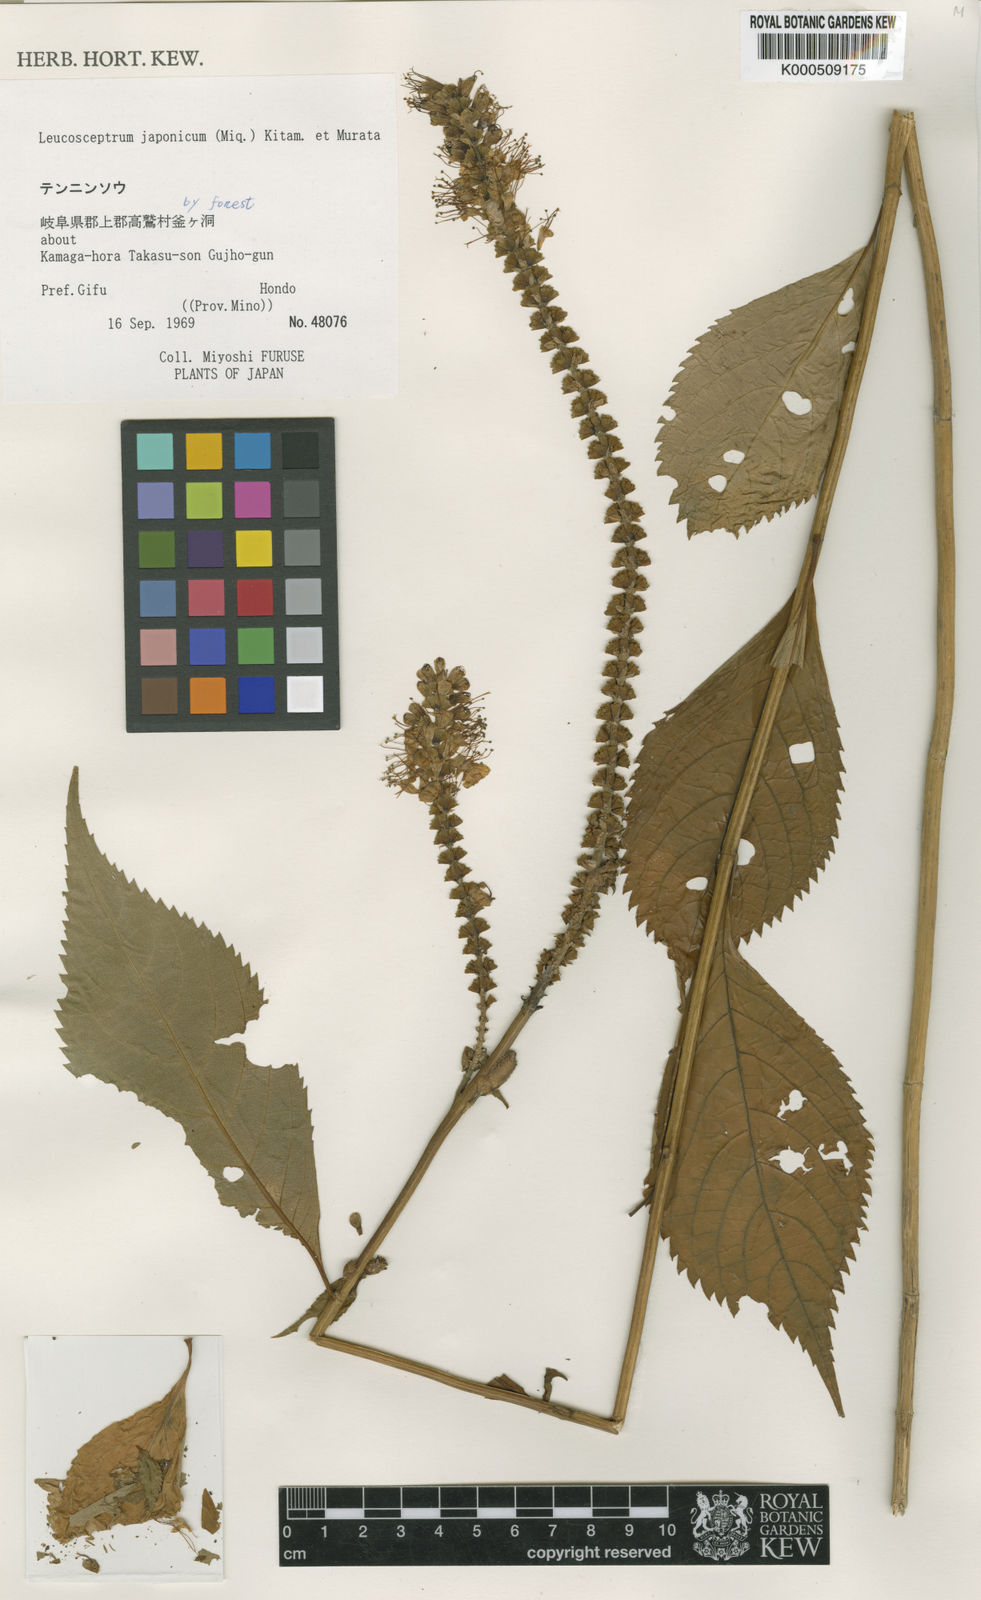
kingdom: Plantae
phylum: Tracheophyta
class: Magnoliopsida
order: Lamiales
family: Lamiaceae
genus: Comanthosphace
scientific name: Comanthosphace japonica
